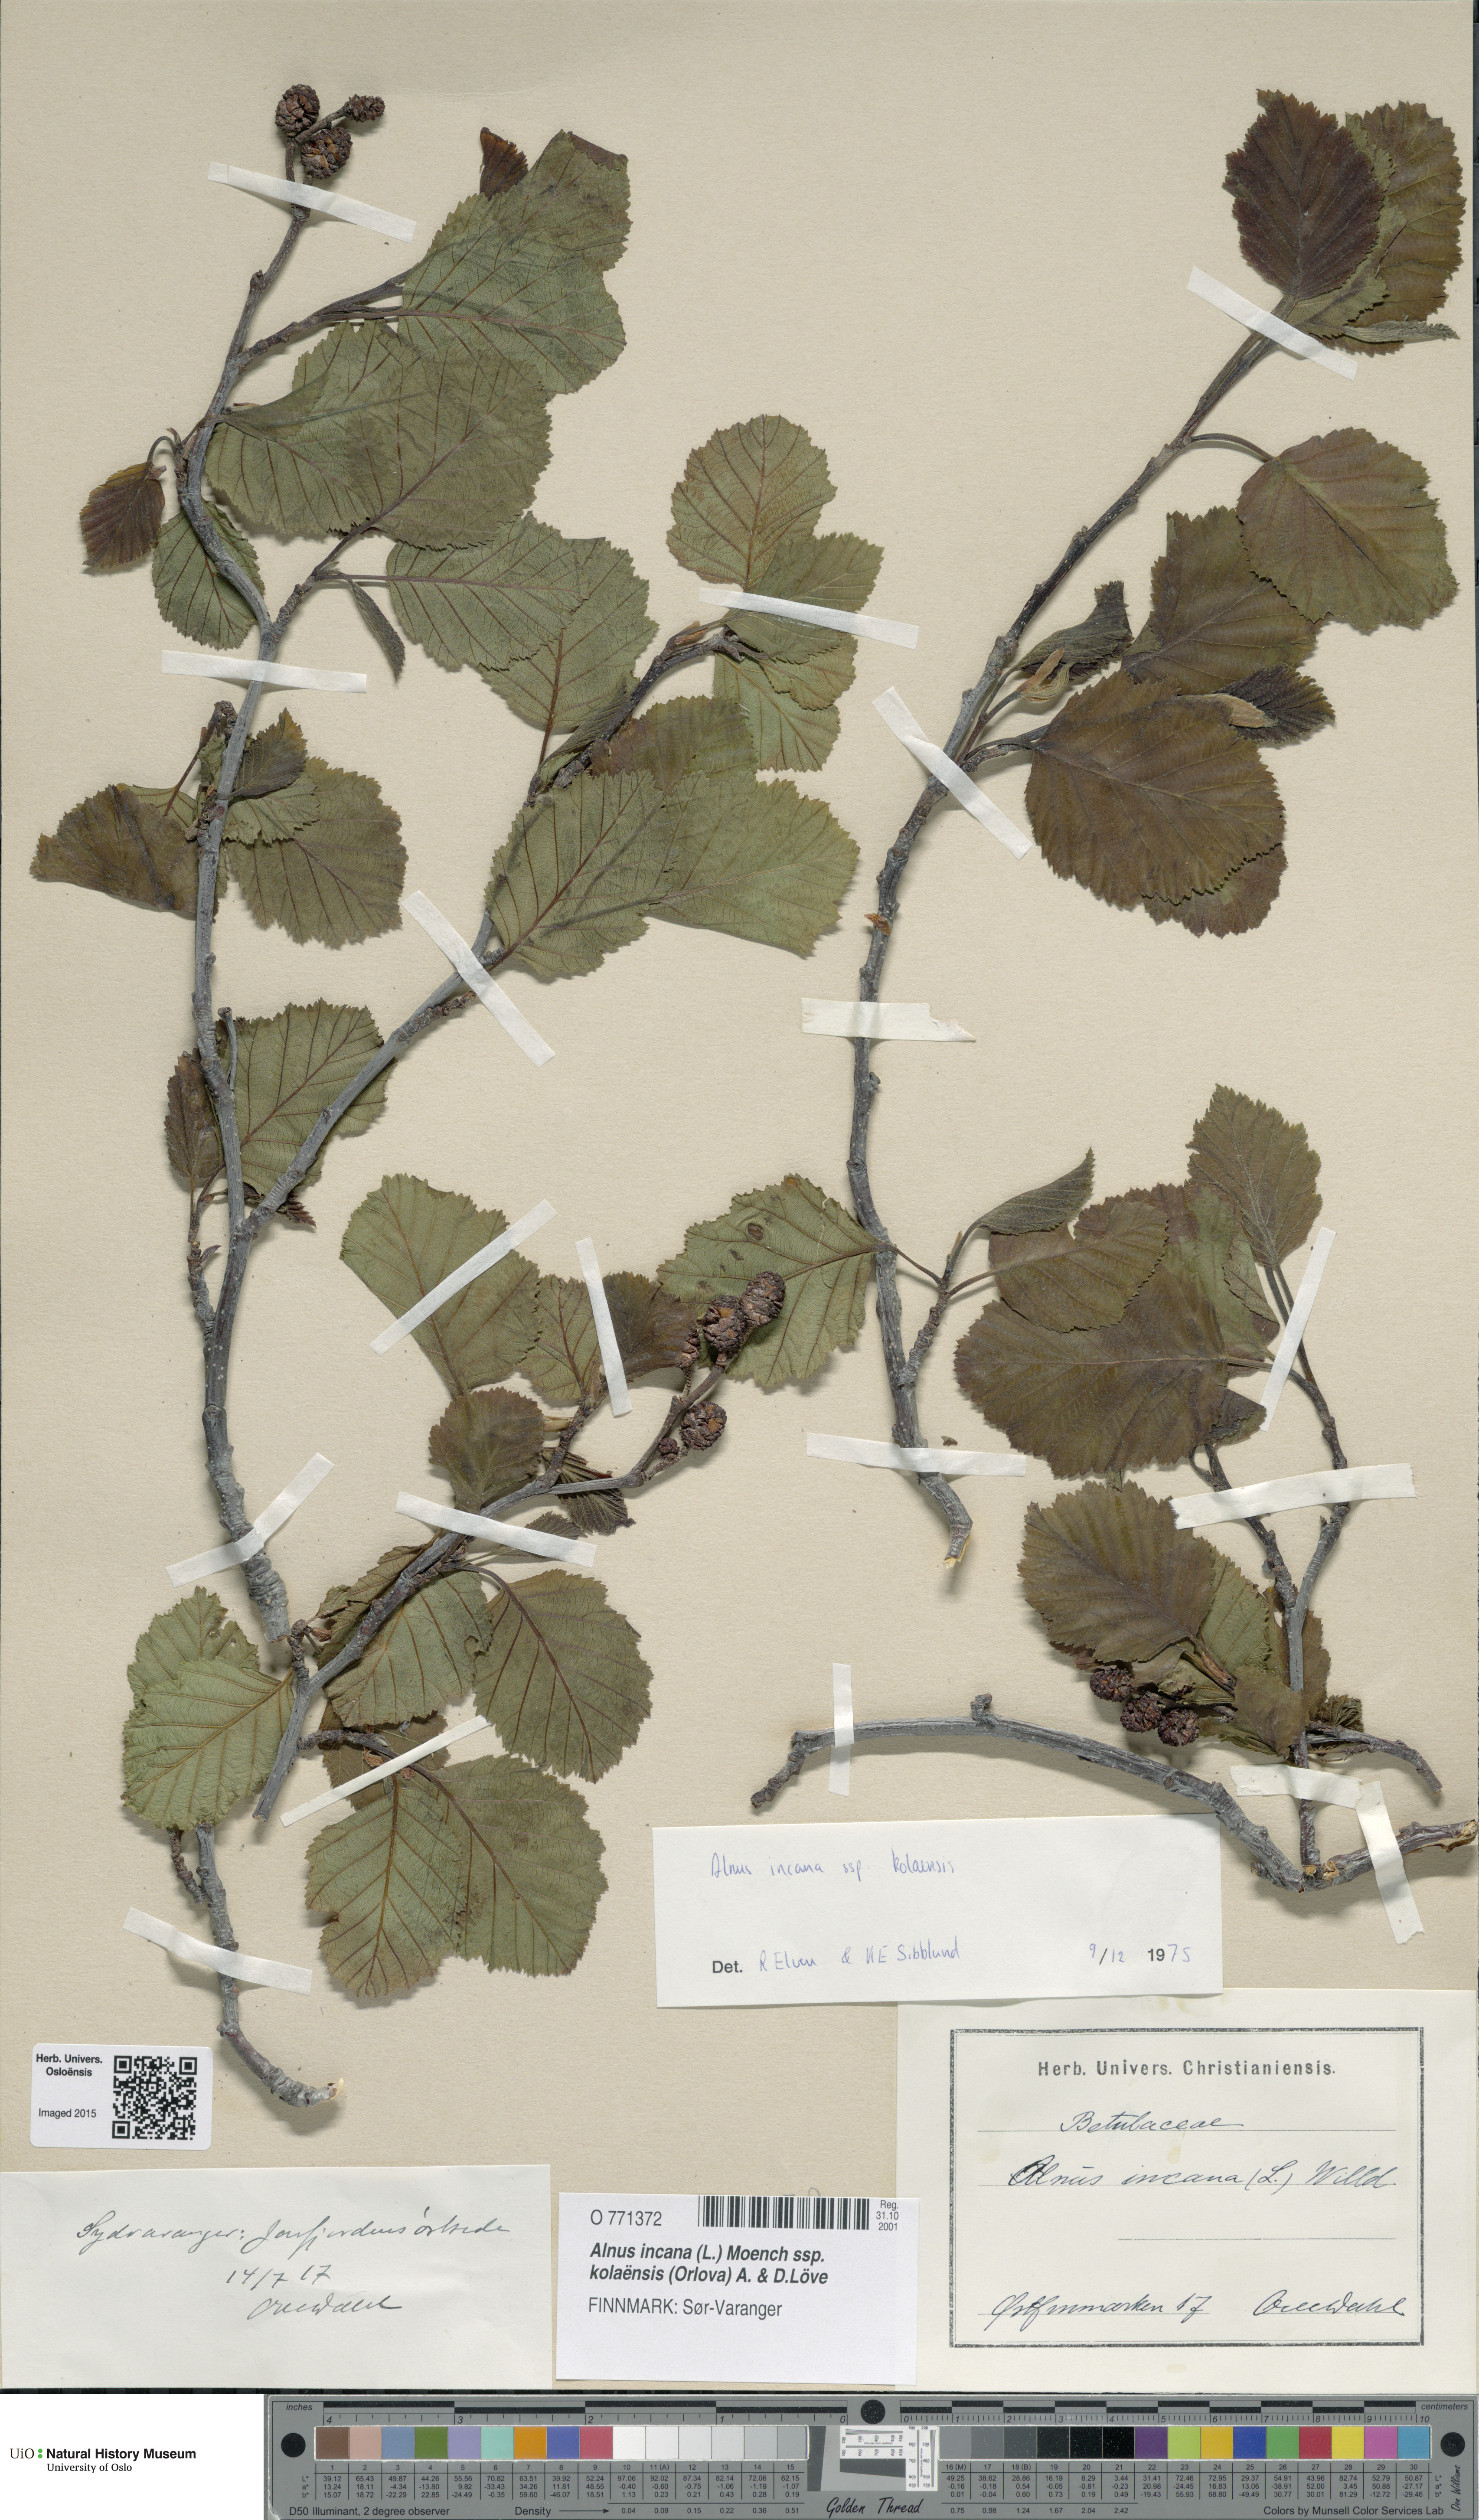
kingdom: Plantae
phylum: Tracheophyta
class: Magnoliopsida
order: Fagales
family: Betulaceae
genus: Alnus
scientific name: Alnus incana
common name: Grey alder
